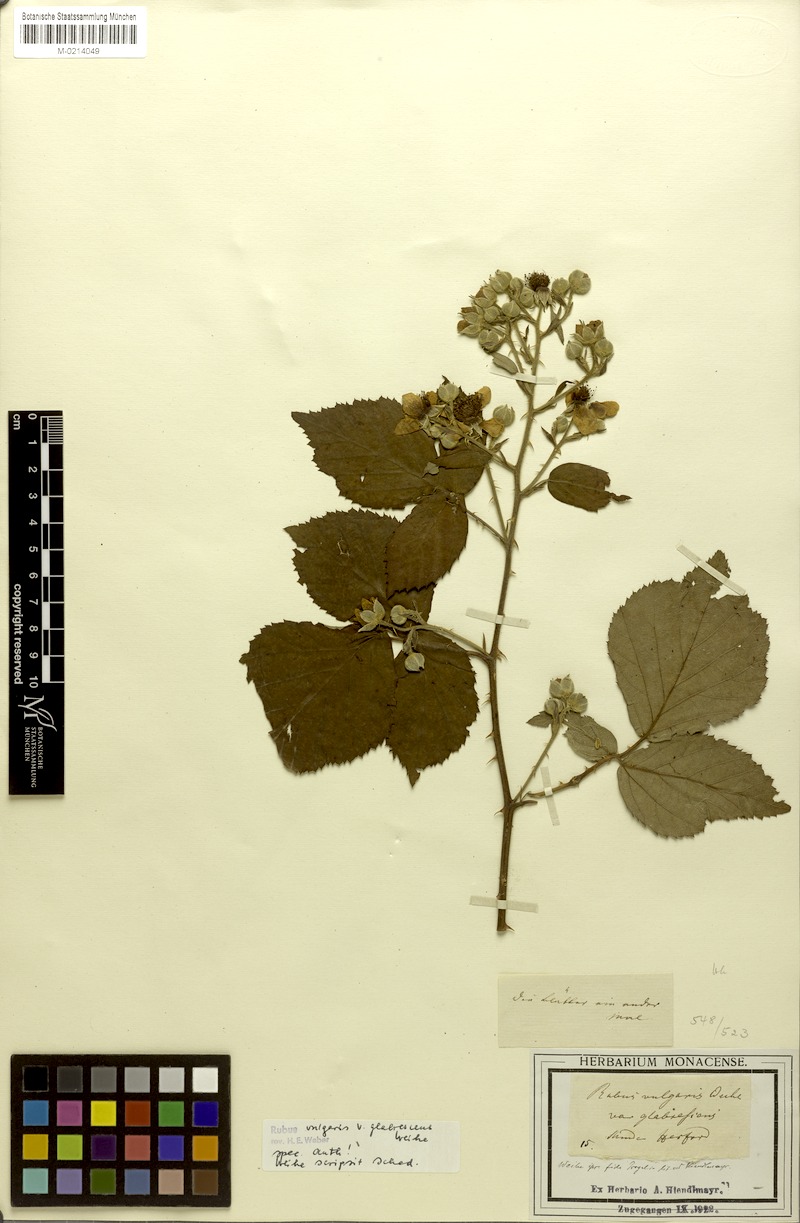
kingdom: Plantae
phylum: Tracheophyta
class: Magnoliopsida
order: Rosales
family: Rosaceae
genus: Rubus
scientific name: Rubus aschoffii
